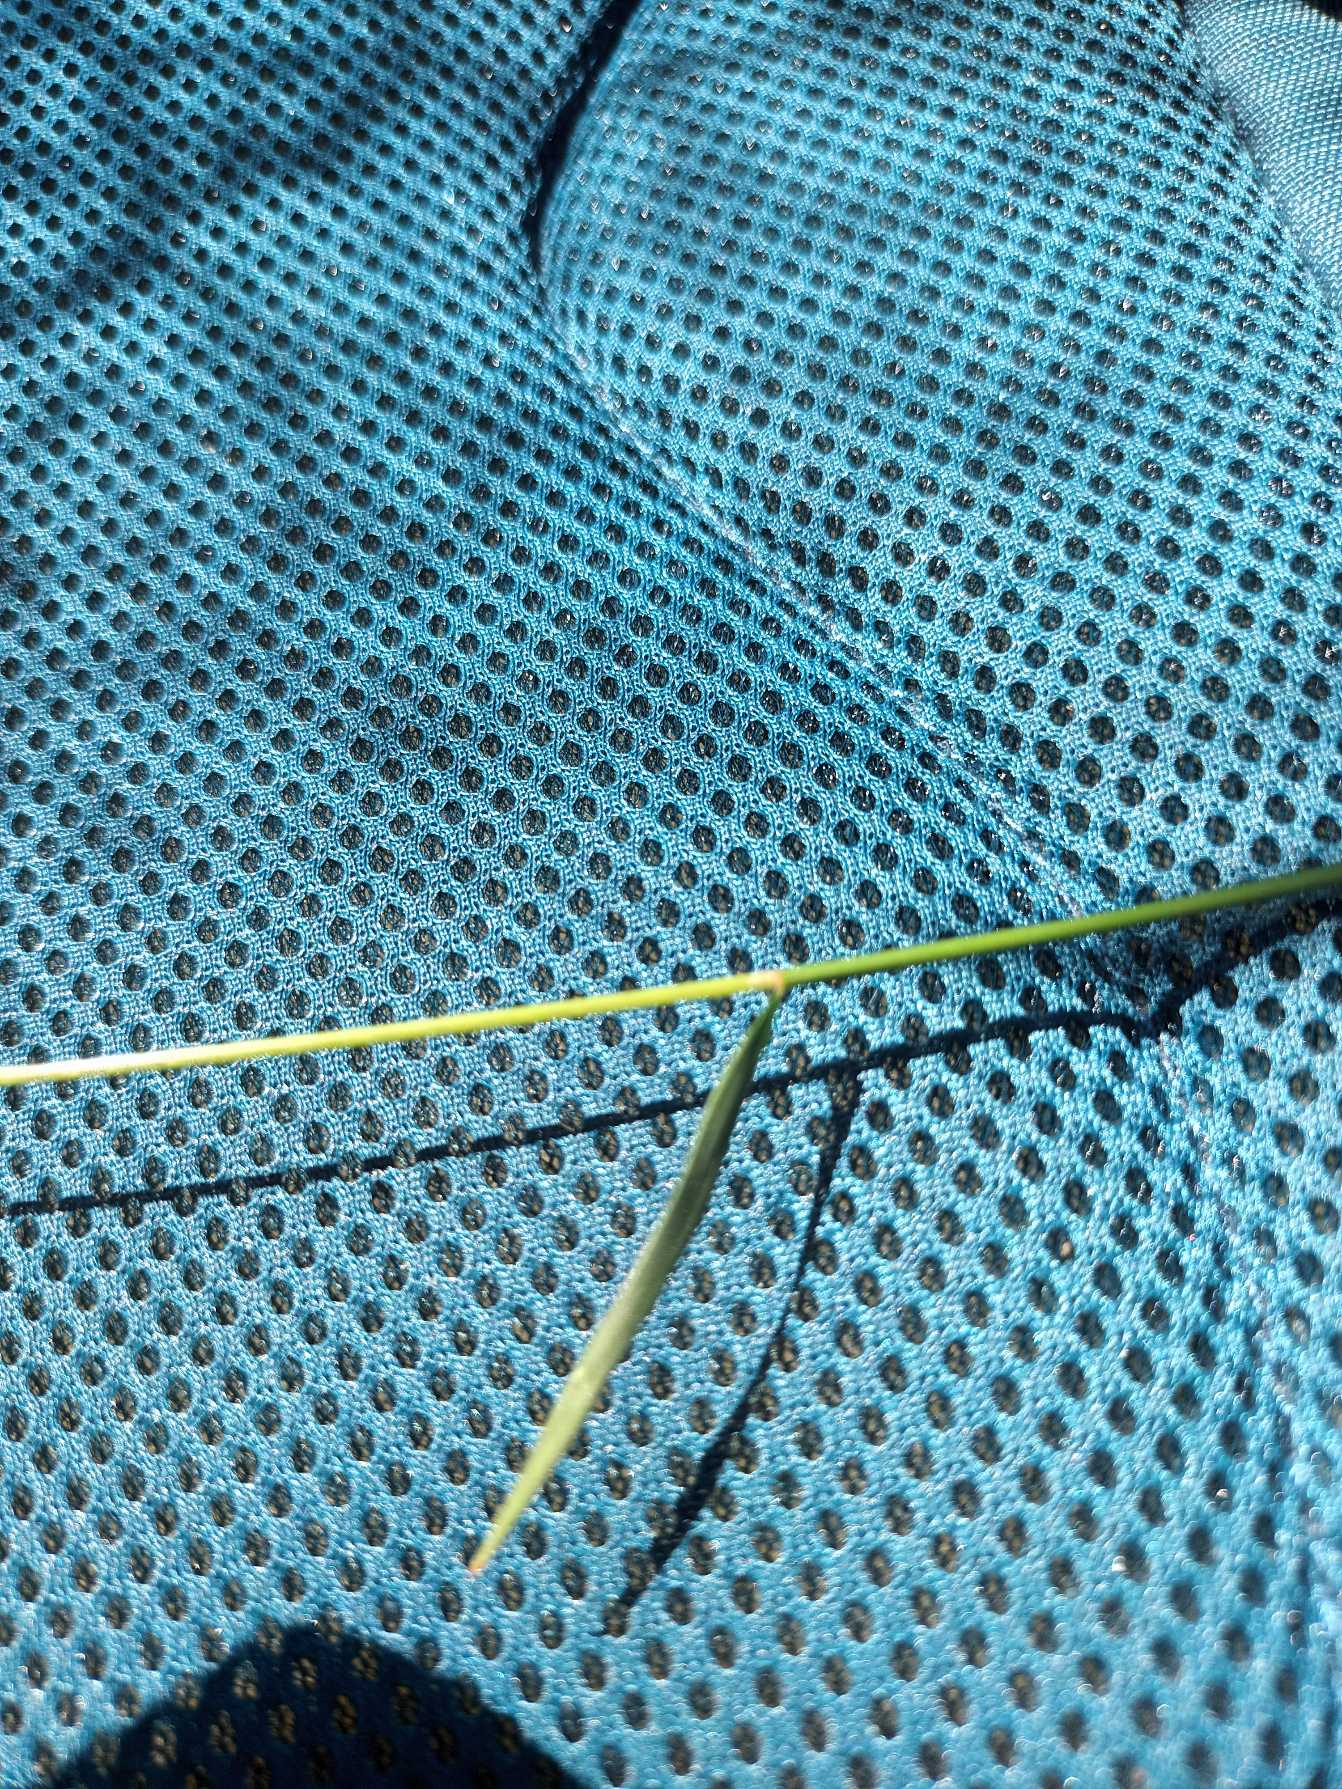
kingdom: Plantae
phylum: Tracheophyta
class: Liliopsida
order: Poales
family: Poaceae
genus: Agrostis
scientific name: Agrostis capillaris
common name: Almindelig hvene
